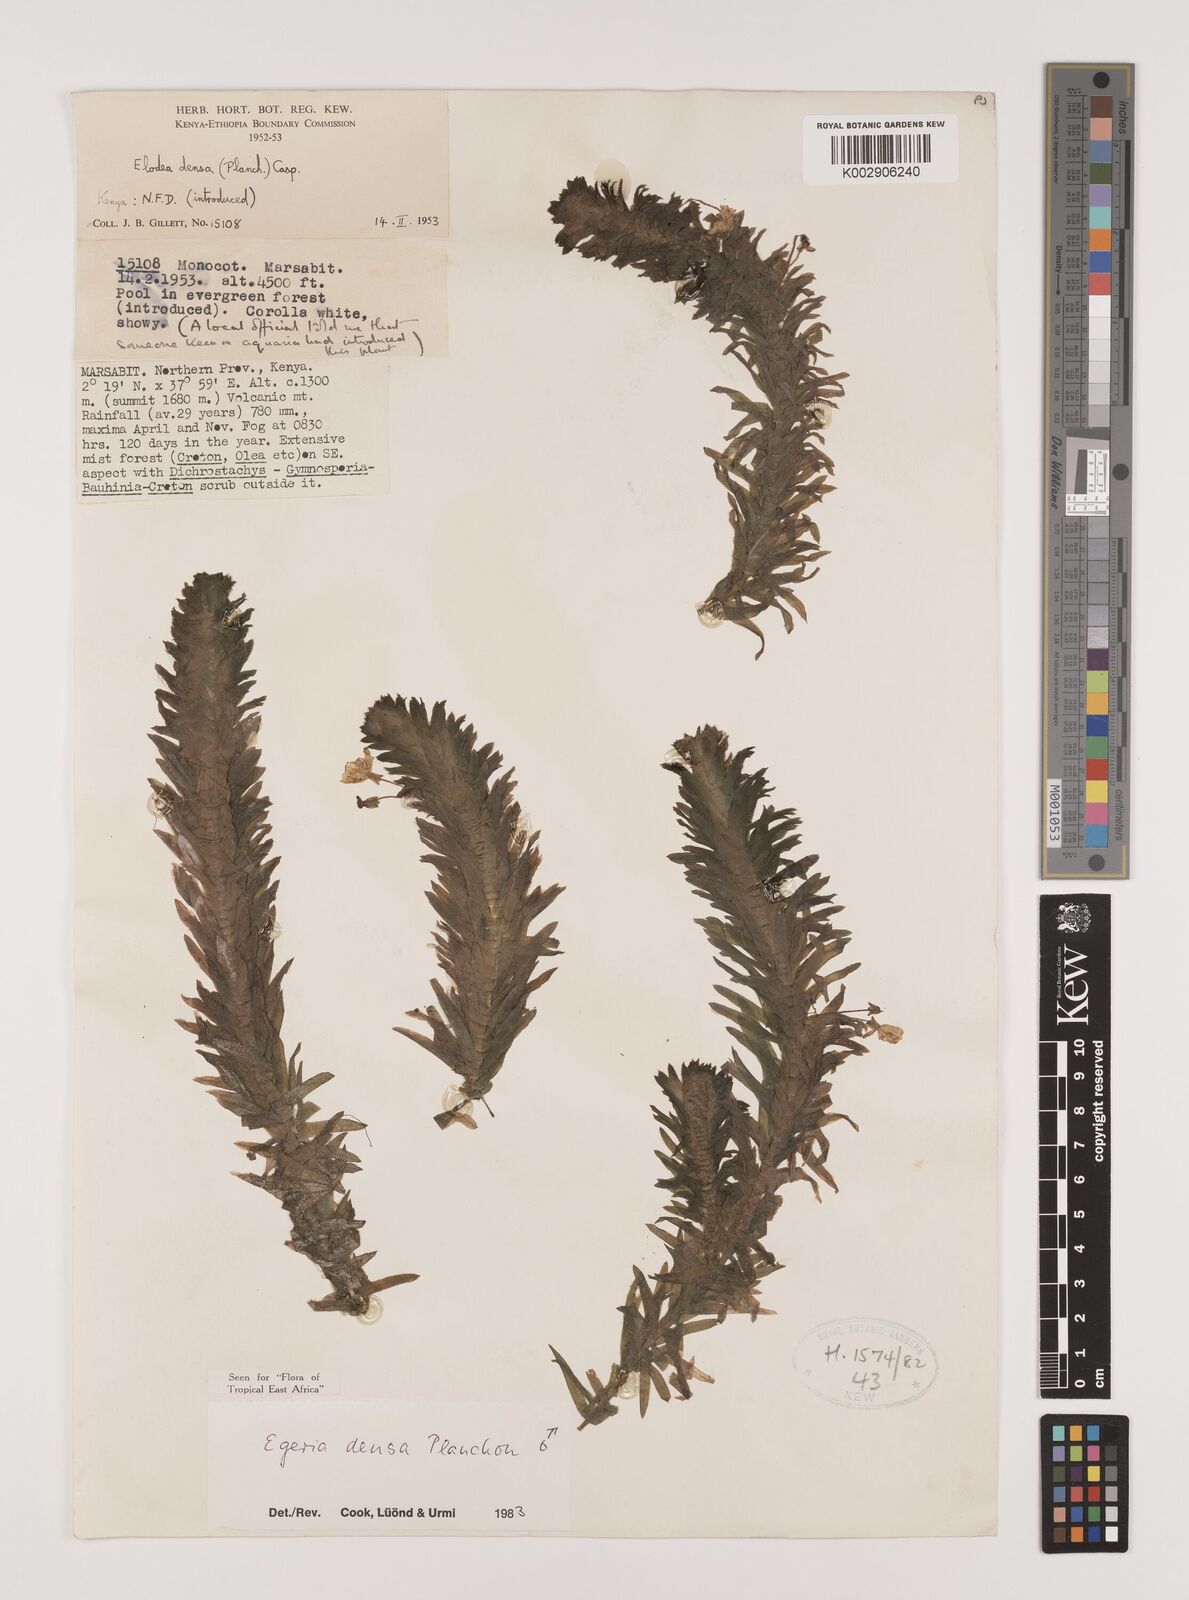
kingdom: Plantae
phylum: Tracheophyta
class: Liliopsida
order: Alismatales
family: Hydrocharitaceae
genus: Elodea
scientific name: Elodea densa
